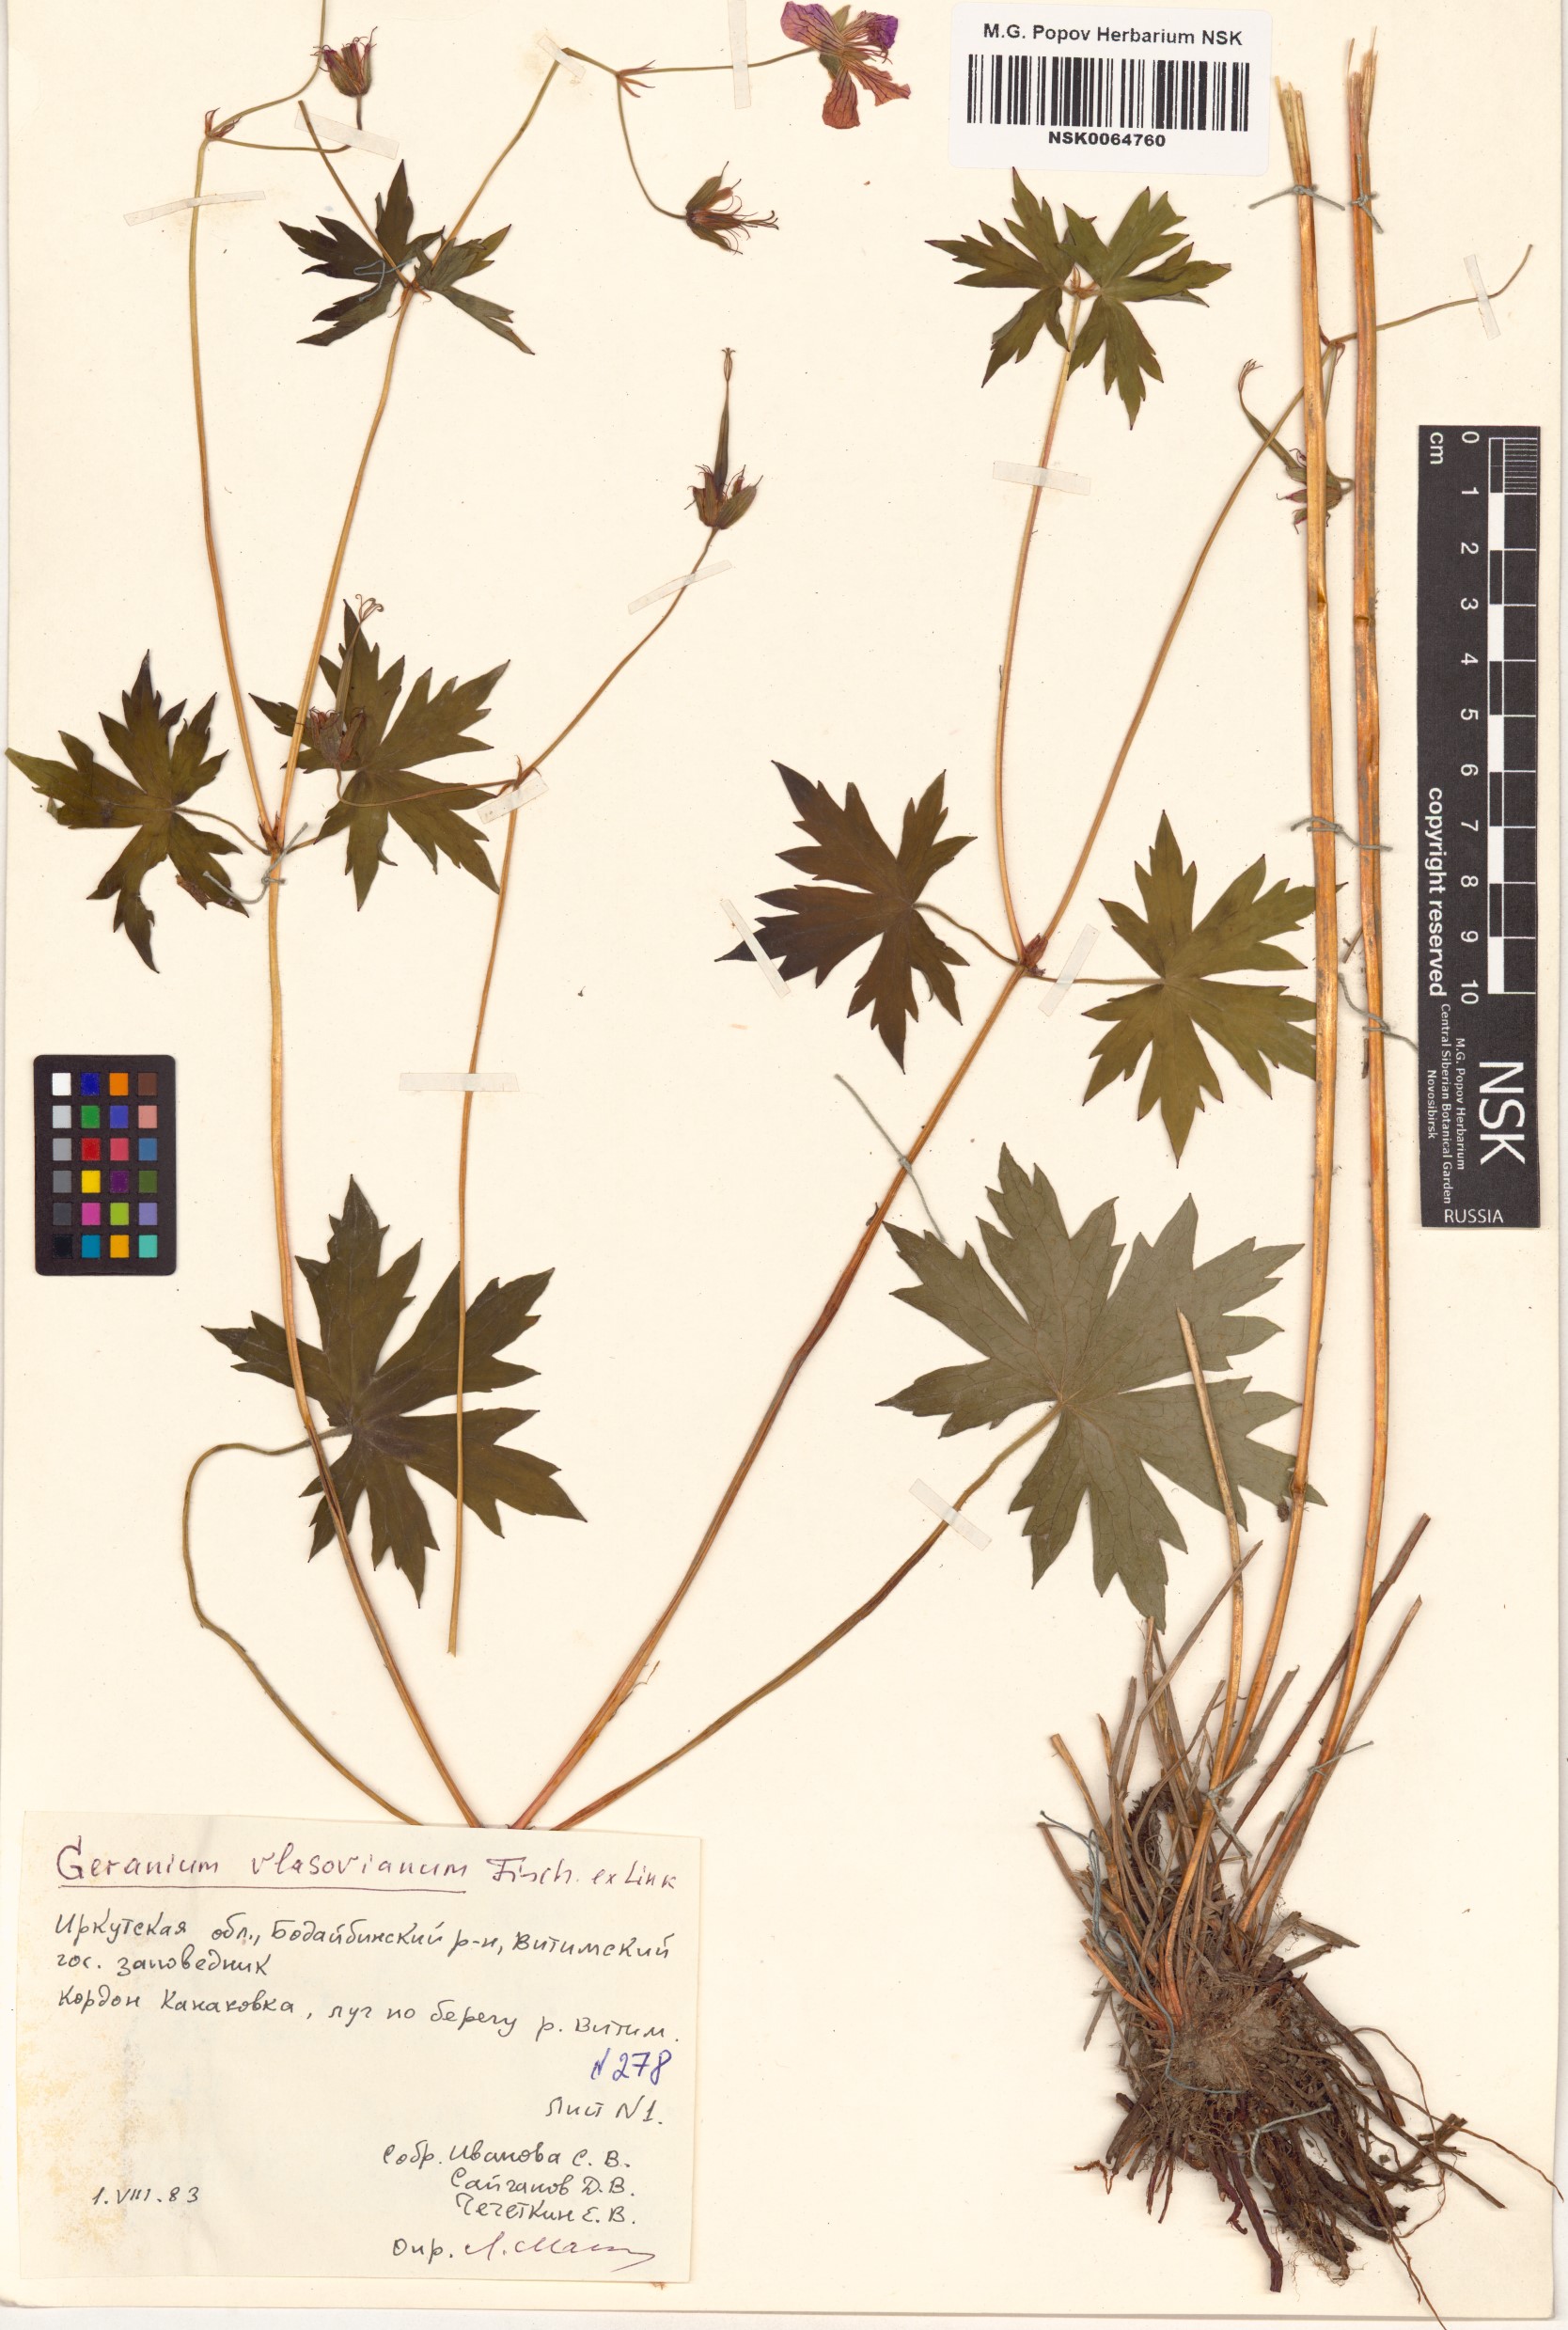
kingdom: Plantae
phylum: Tracheophyta
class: Magnoliopsida
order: Geraniales
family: Geraniaceae
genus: Geranium
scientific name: Geranium wlassovianum
